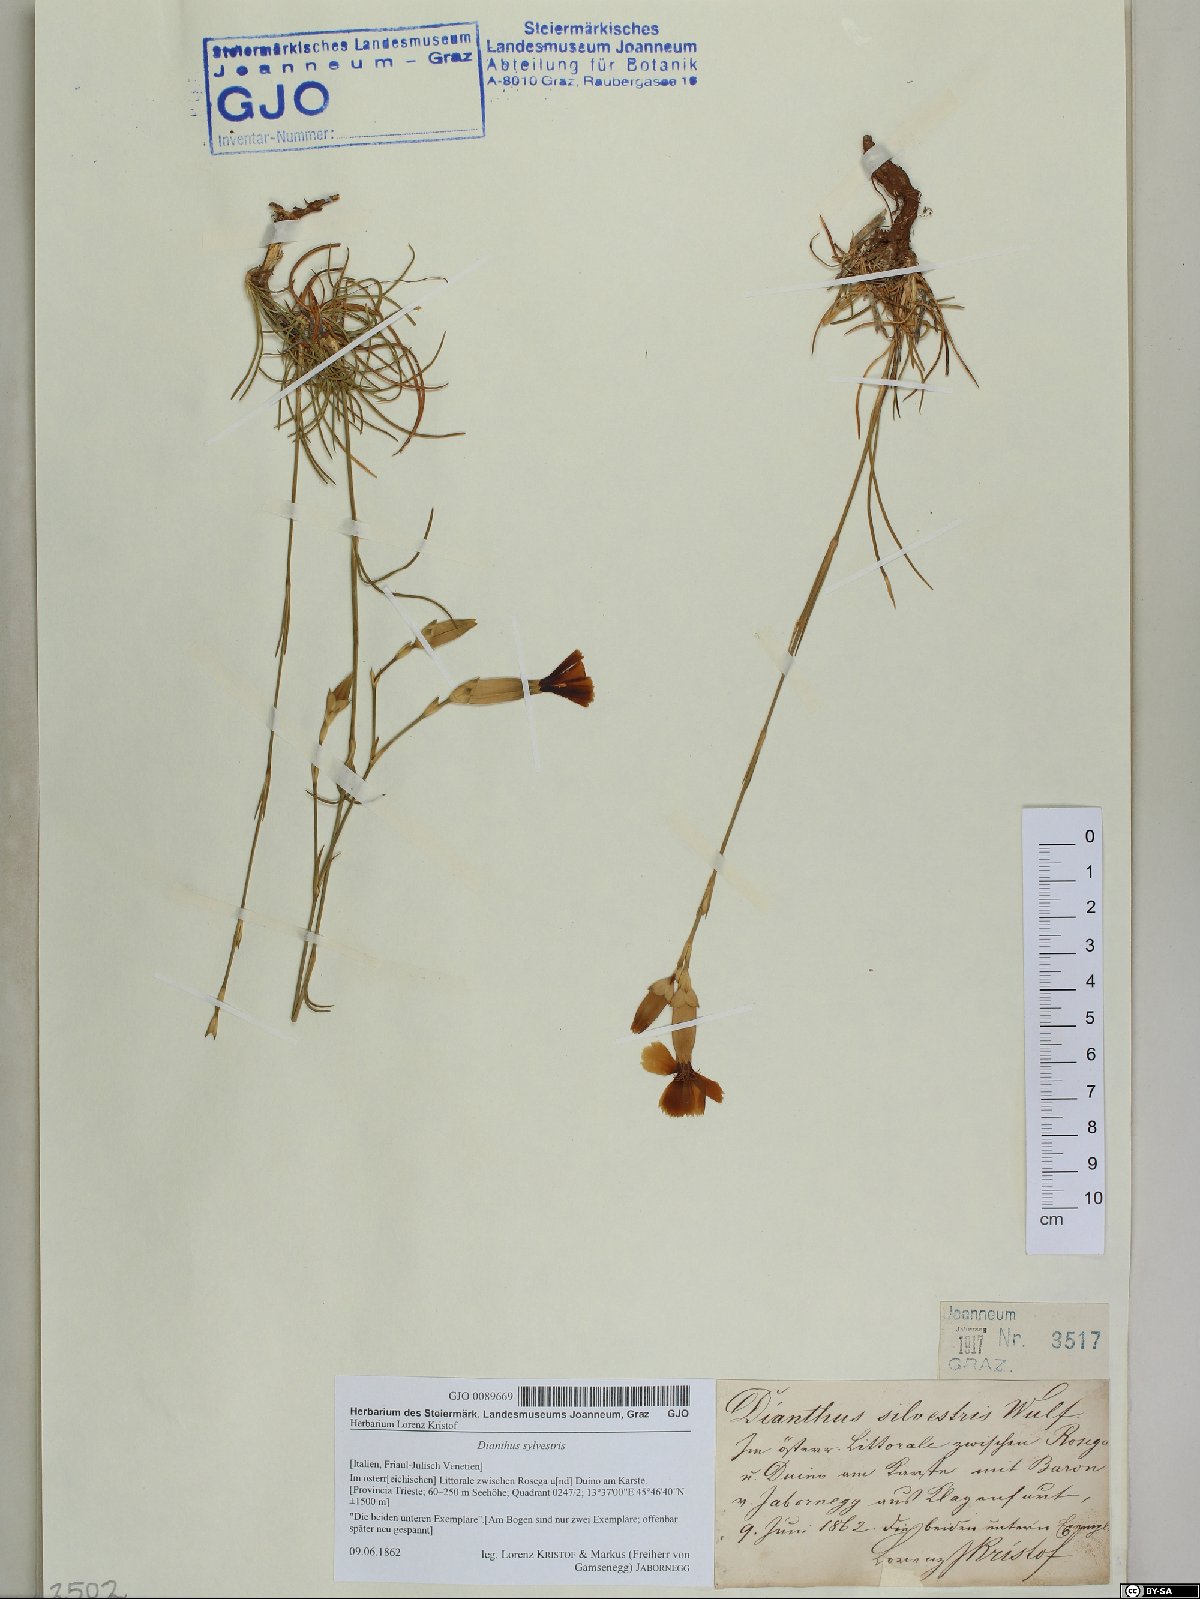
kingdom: Plantae
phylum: Tracheophyta
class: Magnoliopsida
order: Caryophyllales
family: Caryophyllaceae
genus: Dianthus
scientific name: Dianthus sylvestris
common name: Wood pink
